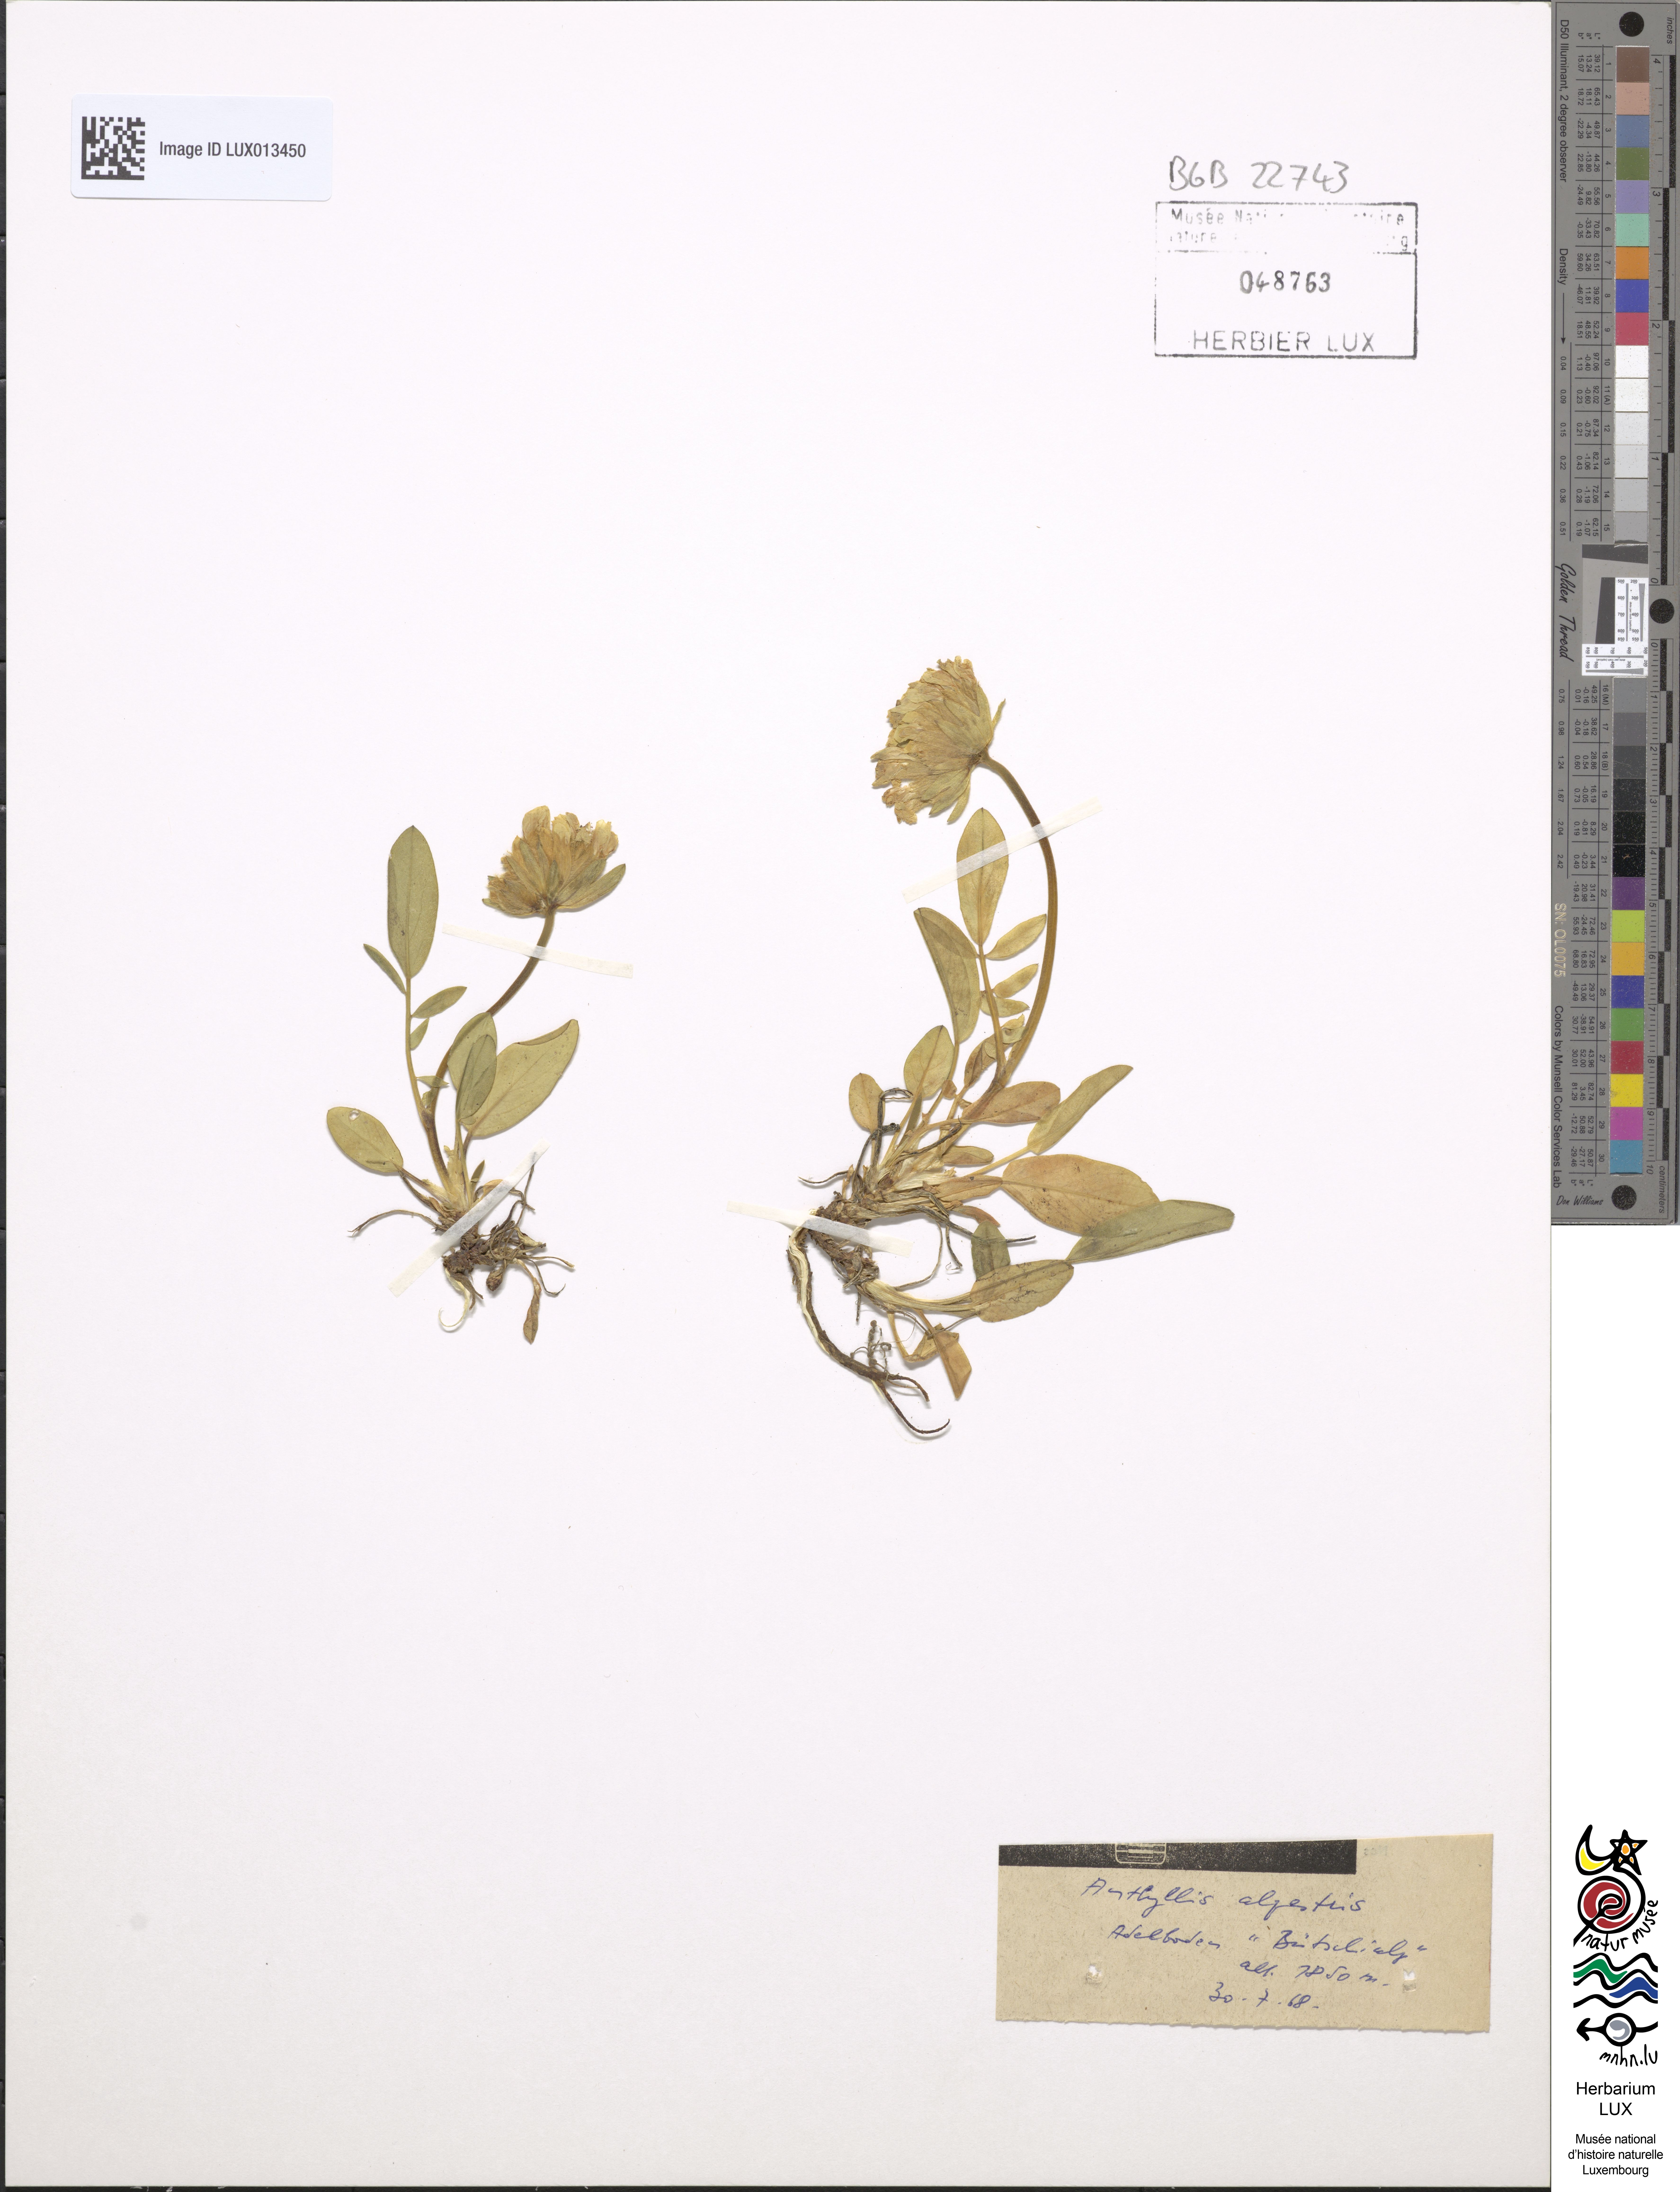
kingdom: Plantae
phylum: Tracheophyta
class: Magnoliopsida
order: Fabales
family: Fabaceae
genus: Anthyllis
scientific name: Anthyllis vulneraria
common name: Kidney vetch
